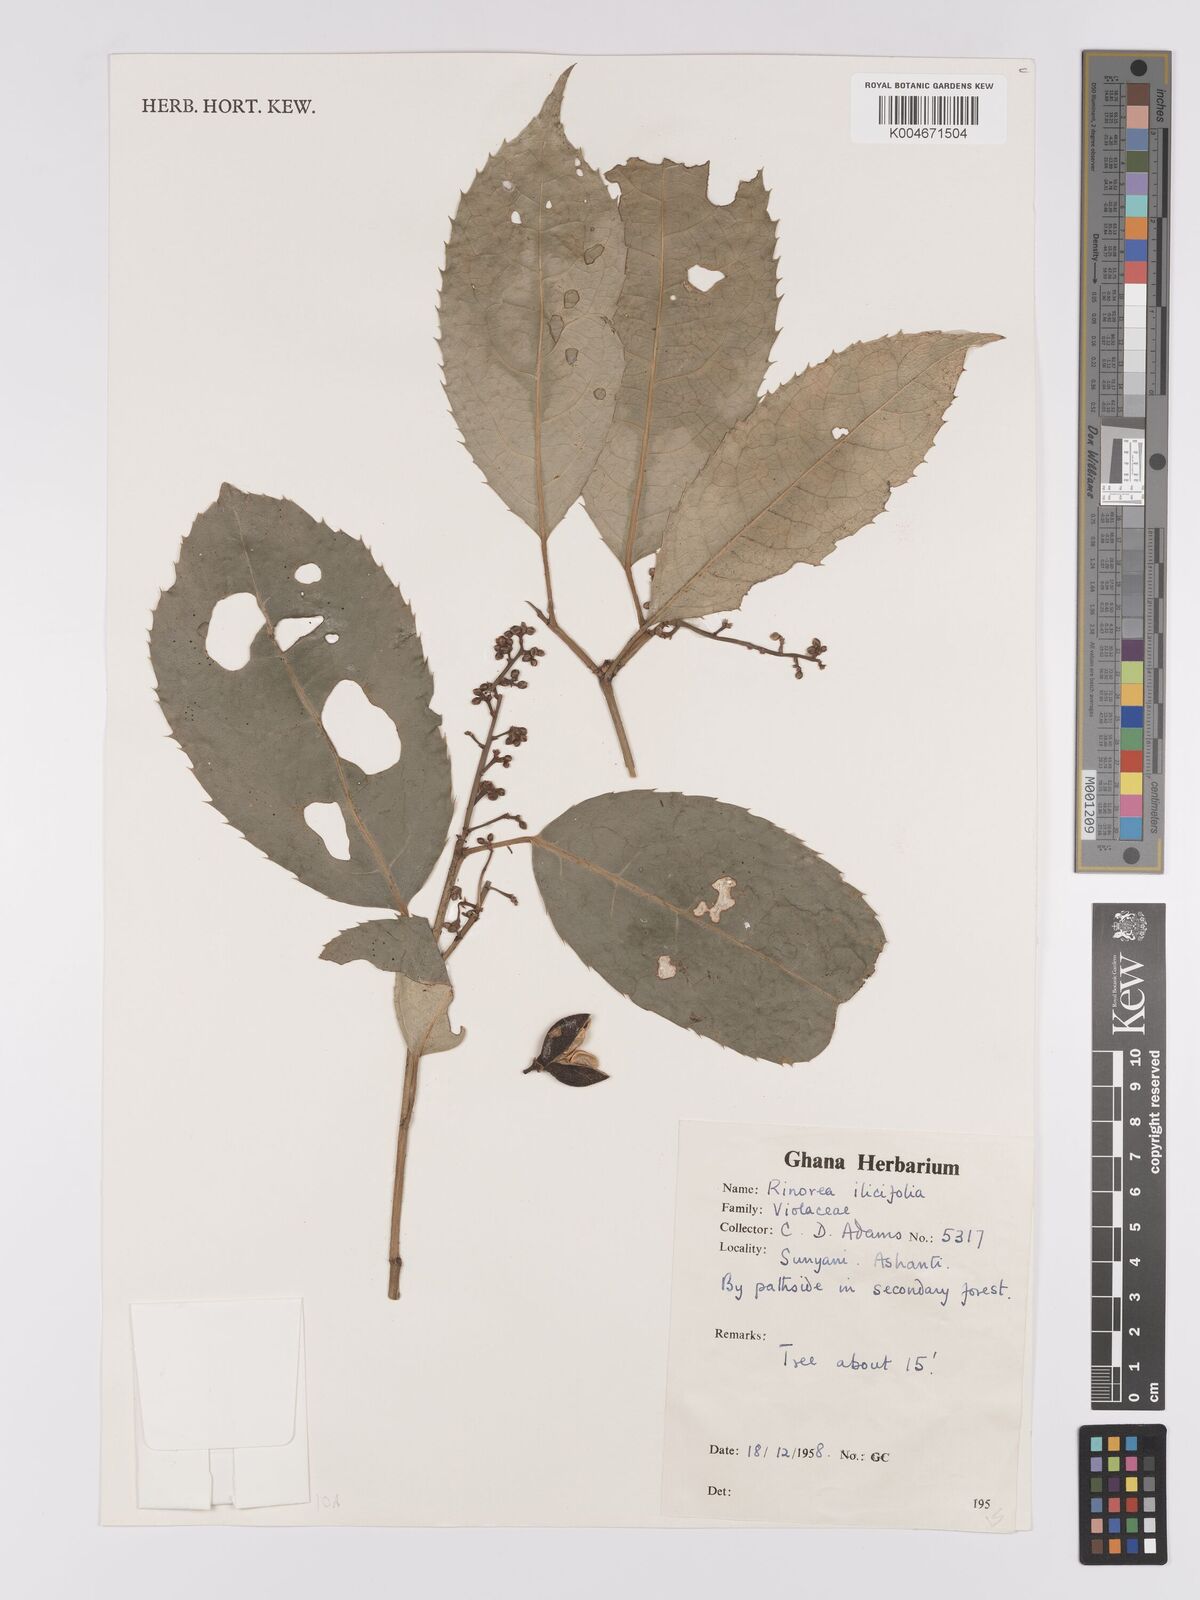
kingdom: Plantae
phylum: Tracheophyta
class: Magnoliopsida
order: Malpighiales
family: Violaceae
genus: Rinorea
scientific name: Rinorea ilicifolia
